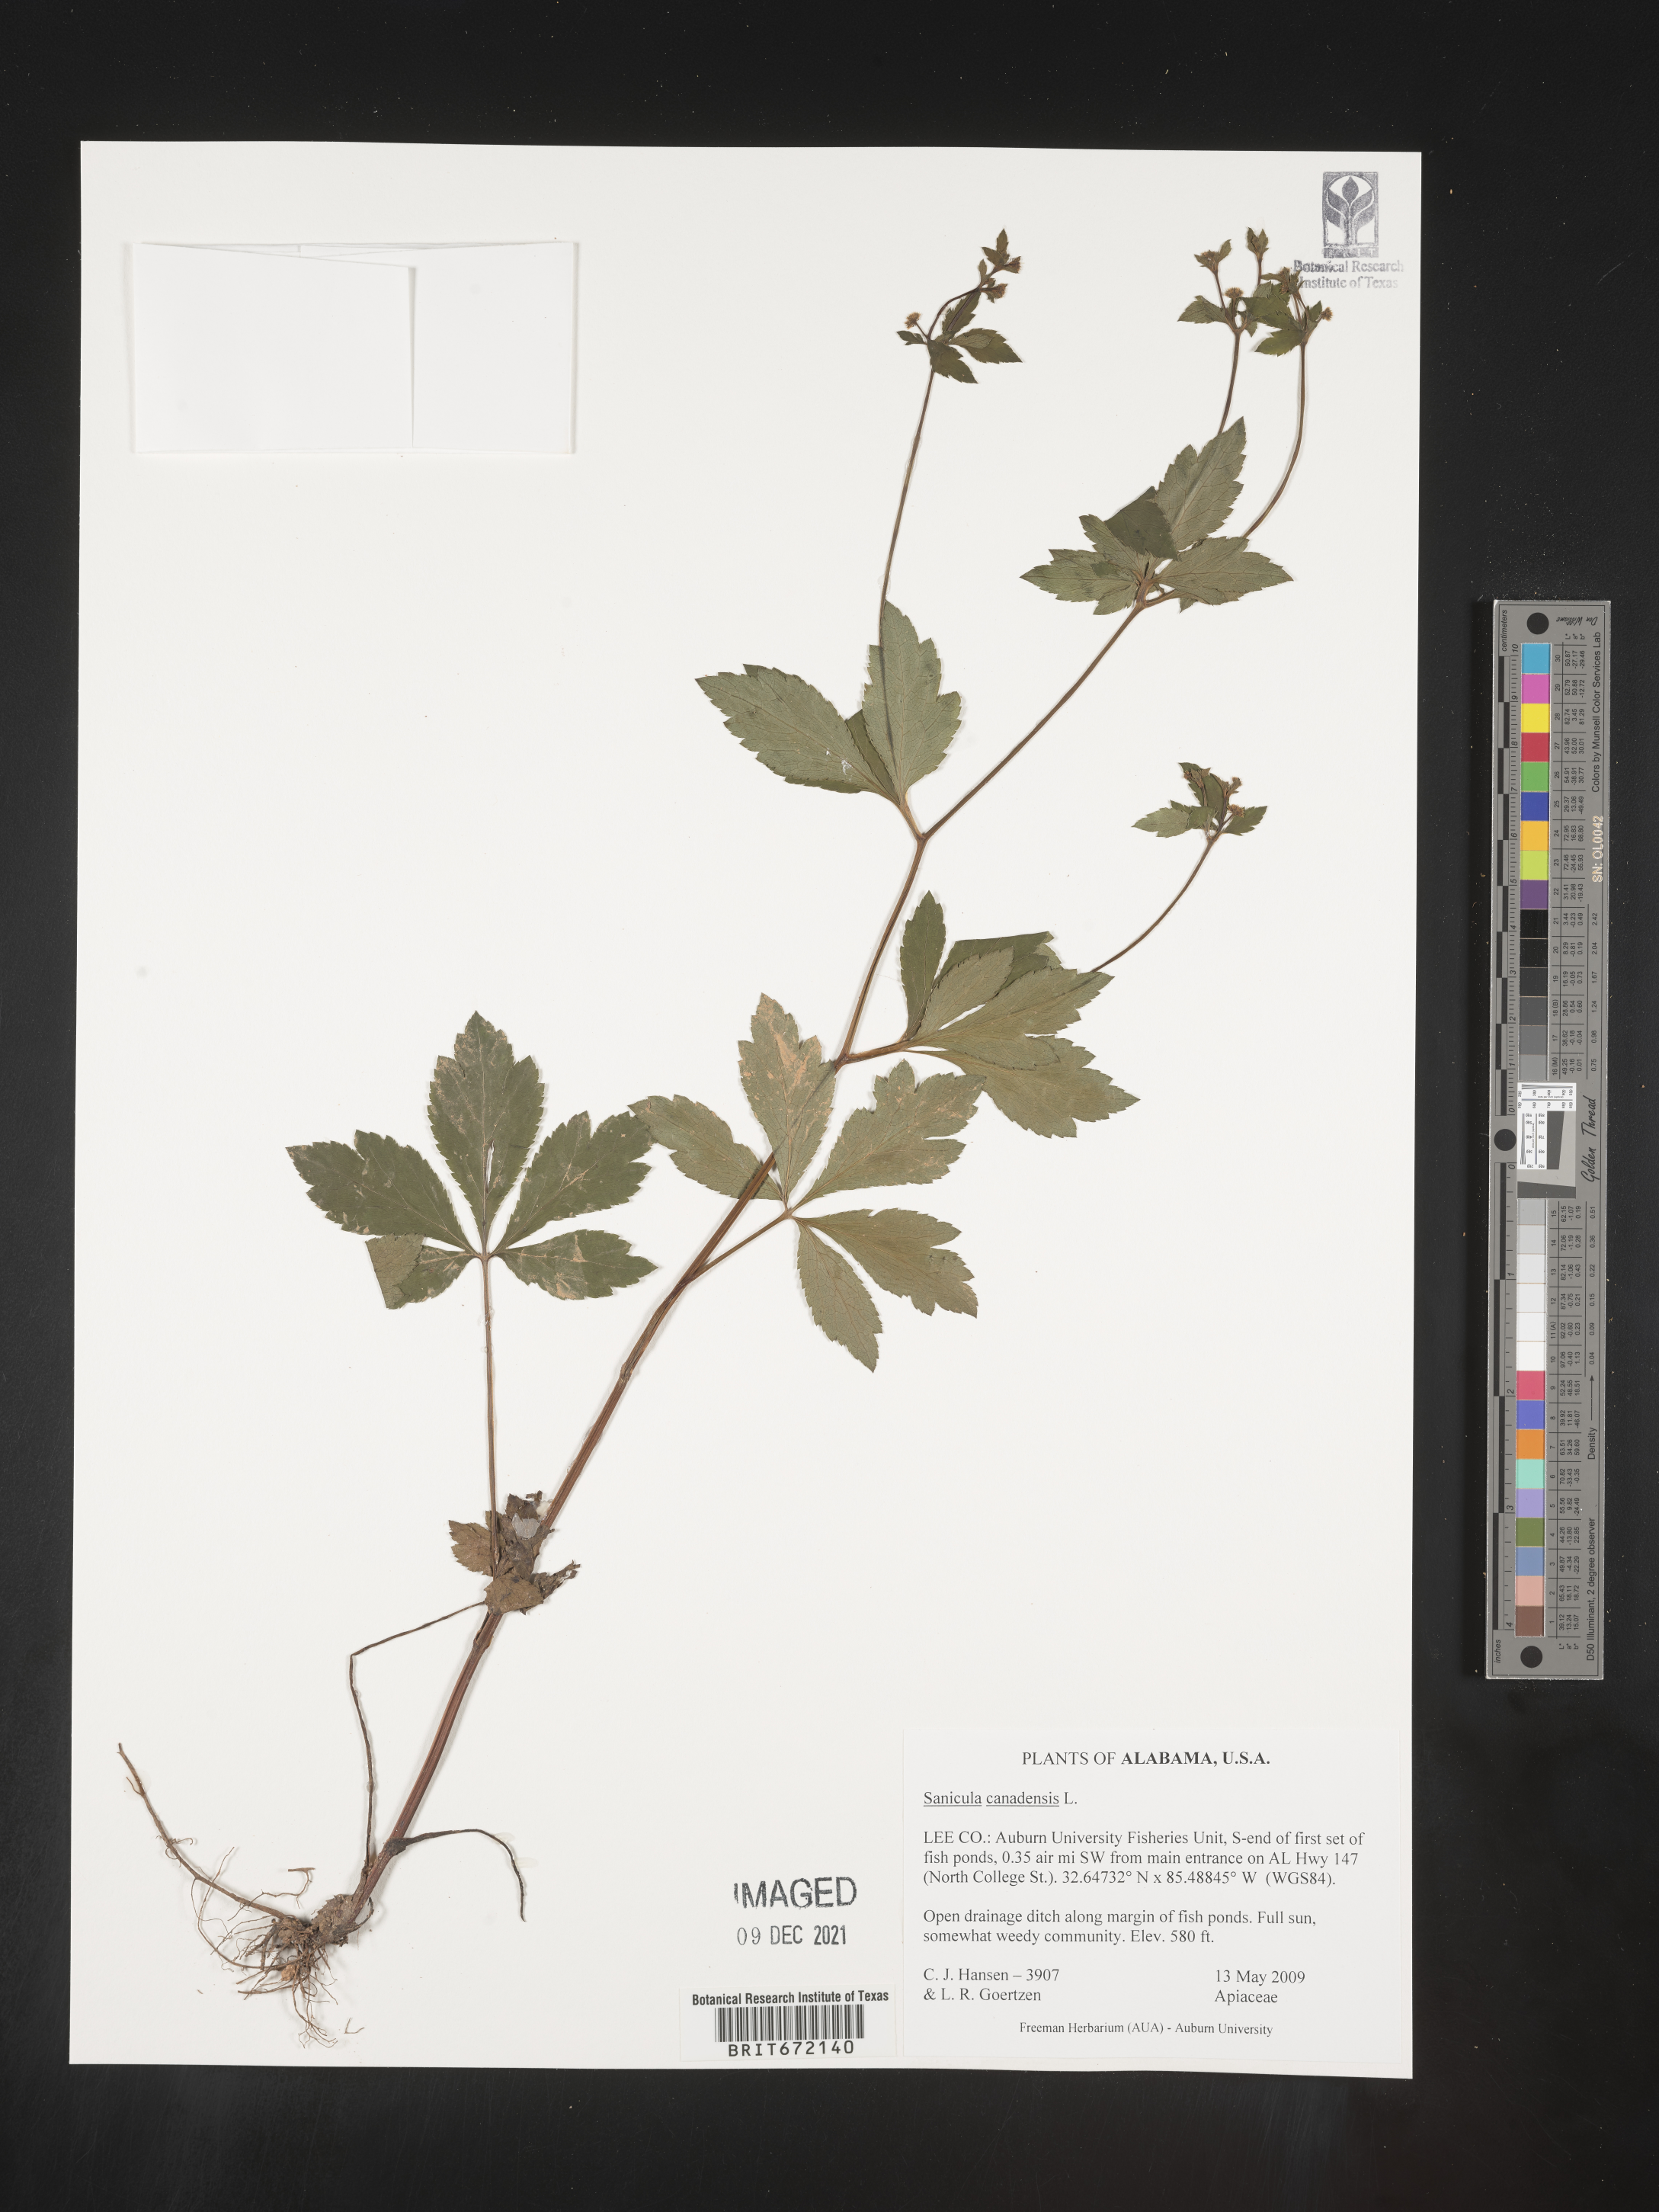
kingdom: Plantae
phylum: Tracheophyta
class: Magnoliopsida
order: Apiales
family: Apiaceae
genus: Sanicula
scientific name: Sanicula canadensis
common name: Canada sanicle
